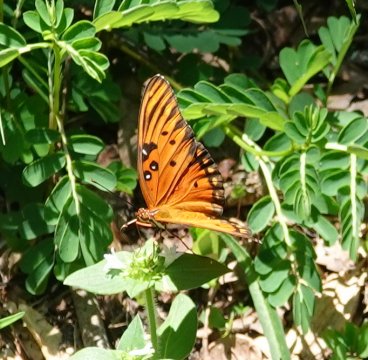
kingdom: Animalia
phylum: Arthropoda
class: Insecta
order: Lepidoptera
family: Nymphalidae
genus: Dione
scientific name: Dione vanillae
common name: Gulf Fritillary
